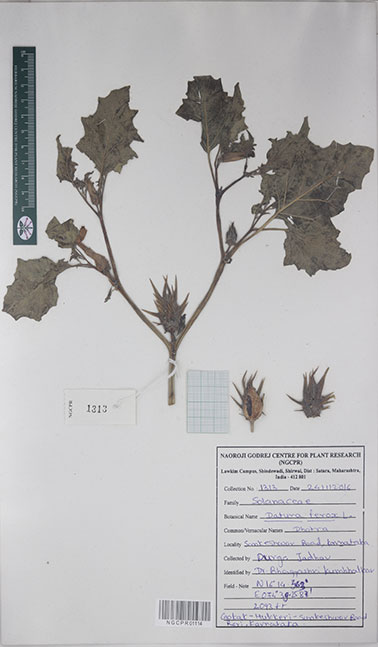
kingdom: Plantae
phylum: Tracheophyta
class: Magnoliopsida
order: Solanales
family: Solanaceae
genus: Datura
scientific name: Datura ferox
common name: Angel's-trumpets
